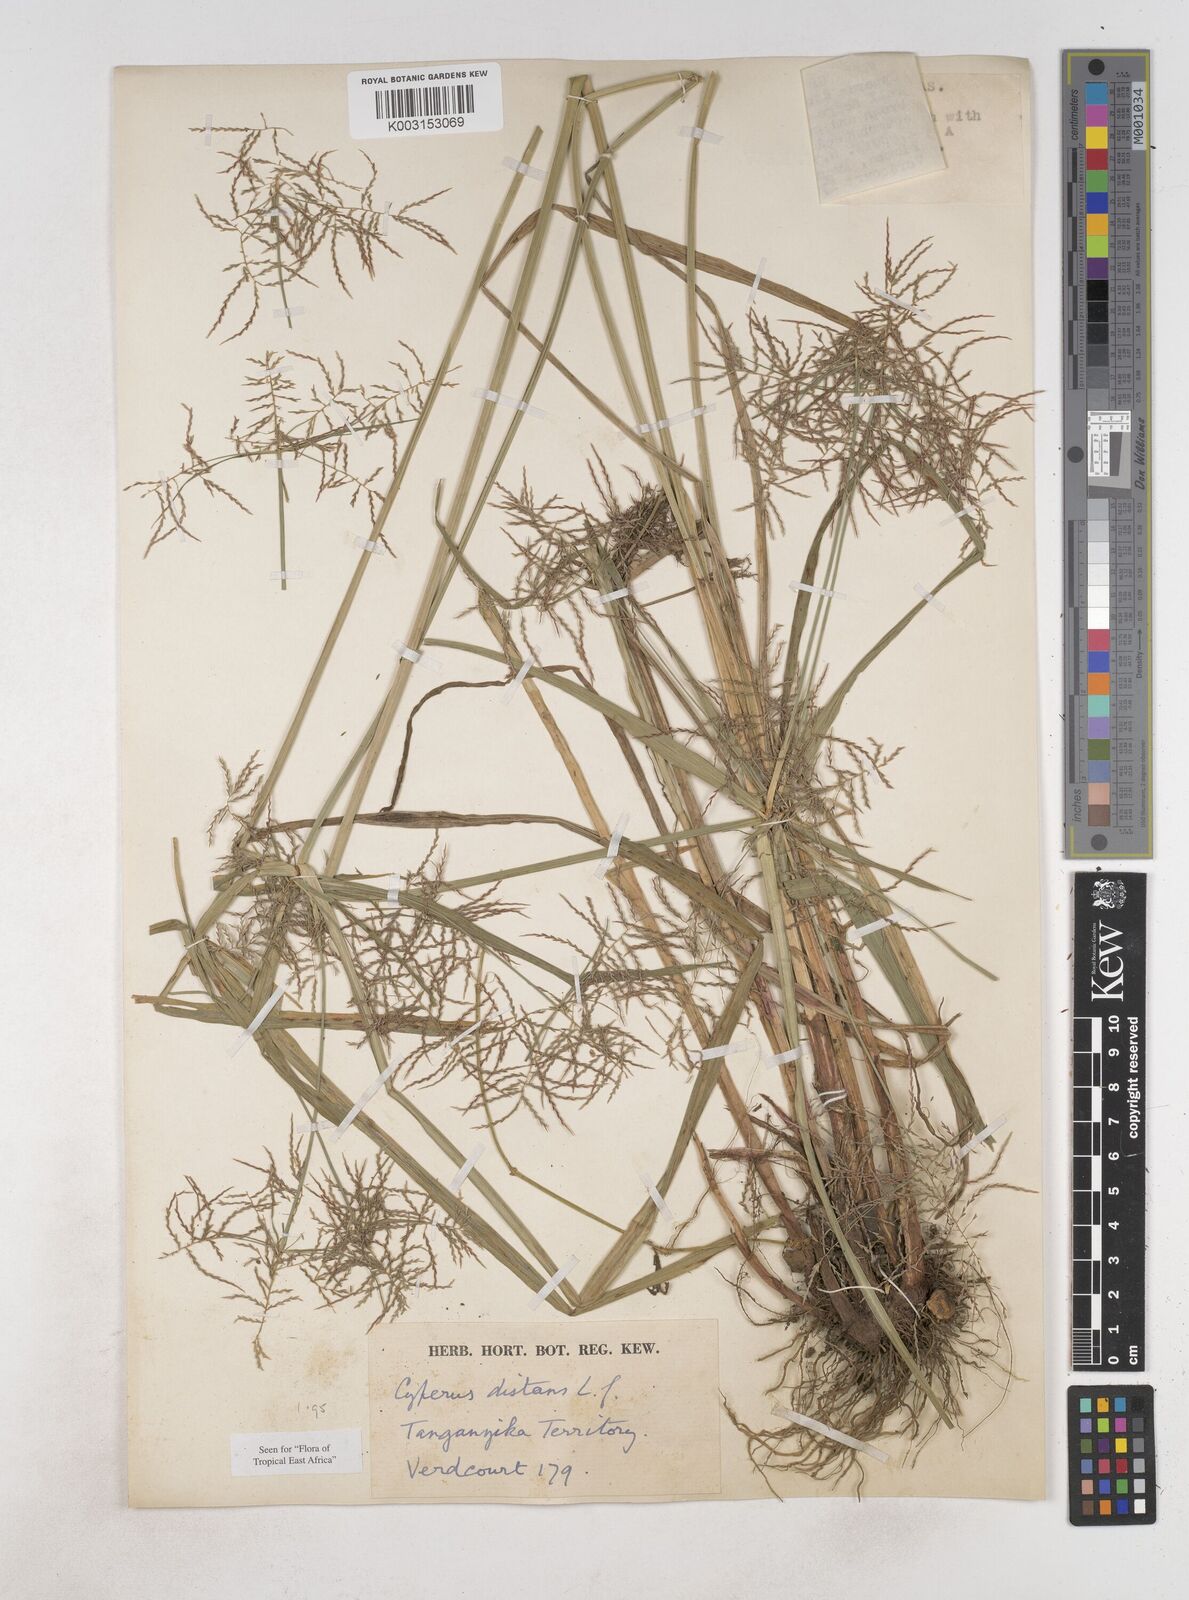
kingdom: Plantae
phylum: Tracheophyta
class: Liliopsida
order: Poales
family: Cyperaceae
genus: Cyperus
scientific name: Cyperus distans
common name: Slender cyperus
